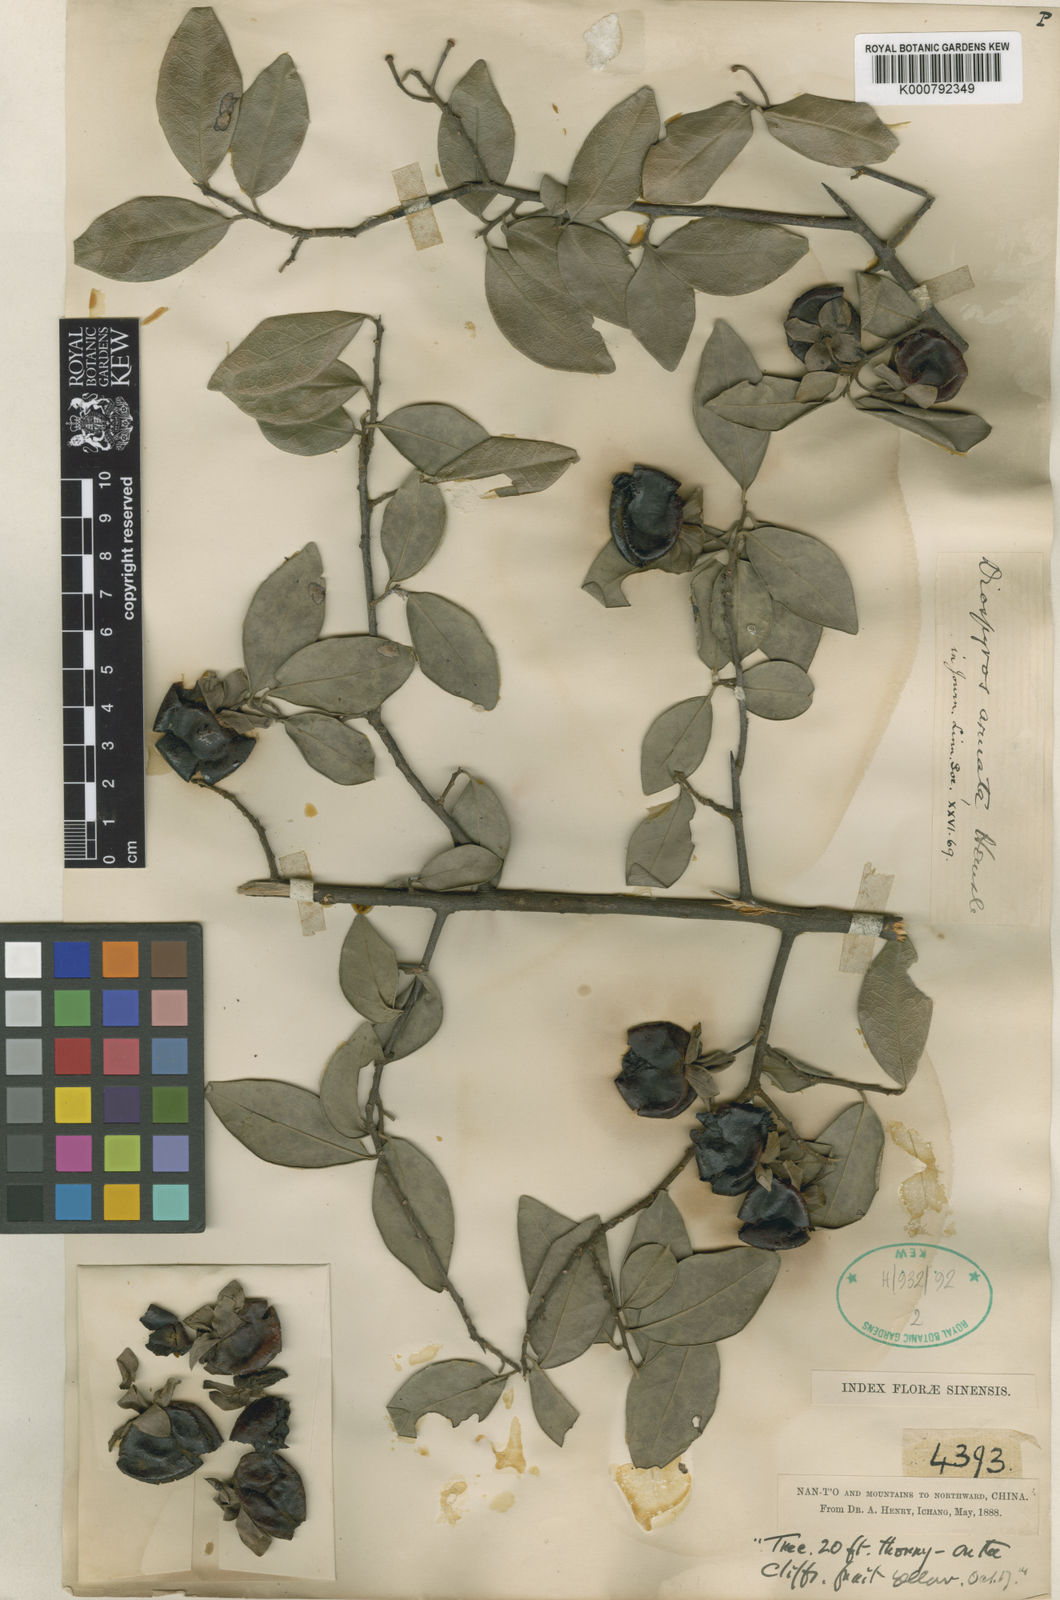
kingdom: Plantae
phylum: Tracheophyta
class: Magnoliopsida
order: Ericales
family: Ebenaceae
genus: Diospyros
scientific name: Diospyros armata
